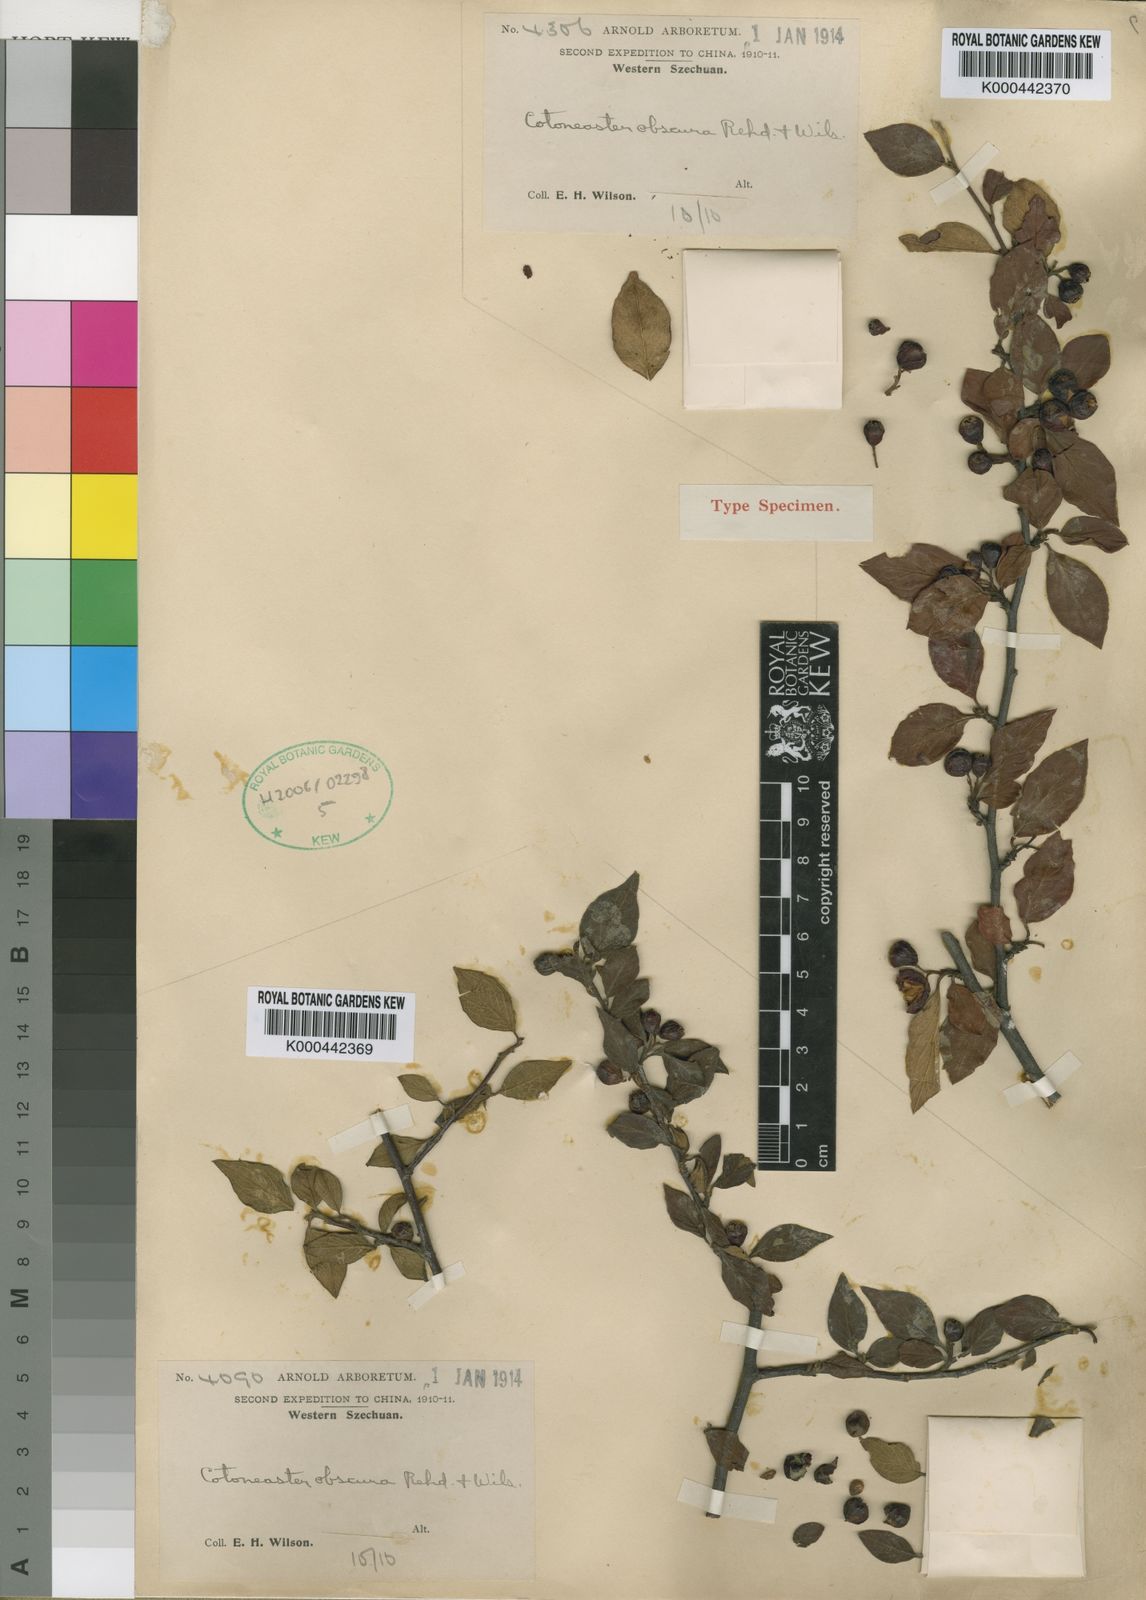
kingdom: Plantae
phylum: Tracheophyta
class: Magnoliopsida
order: Rosales
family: Rosaceae
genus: Cotoneaster
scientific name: Cotoneaster obscurus
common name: Obscure cotoneaster
